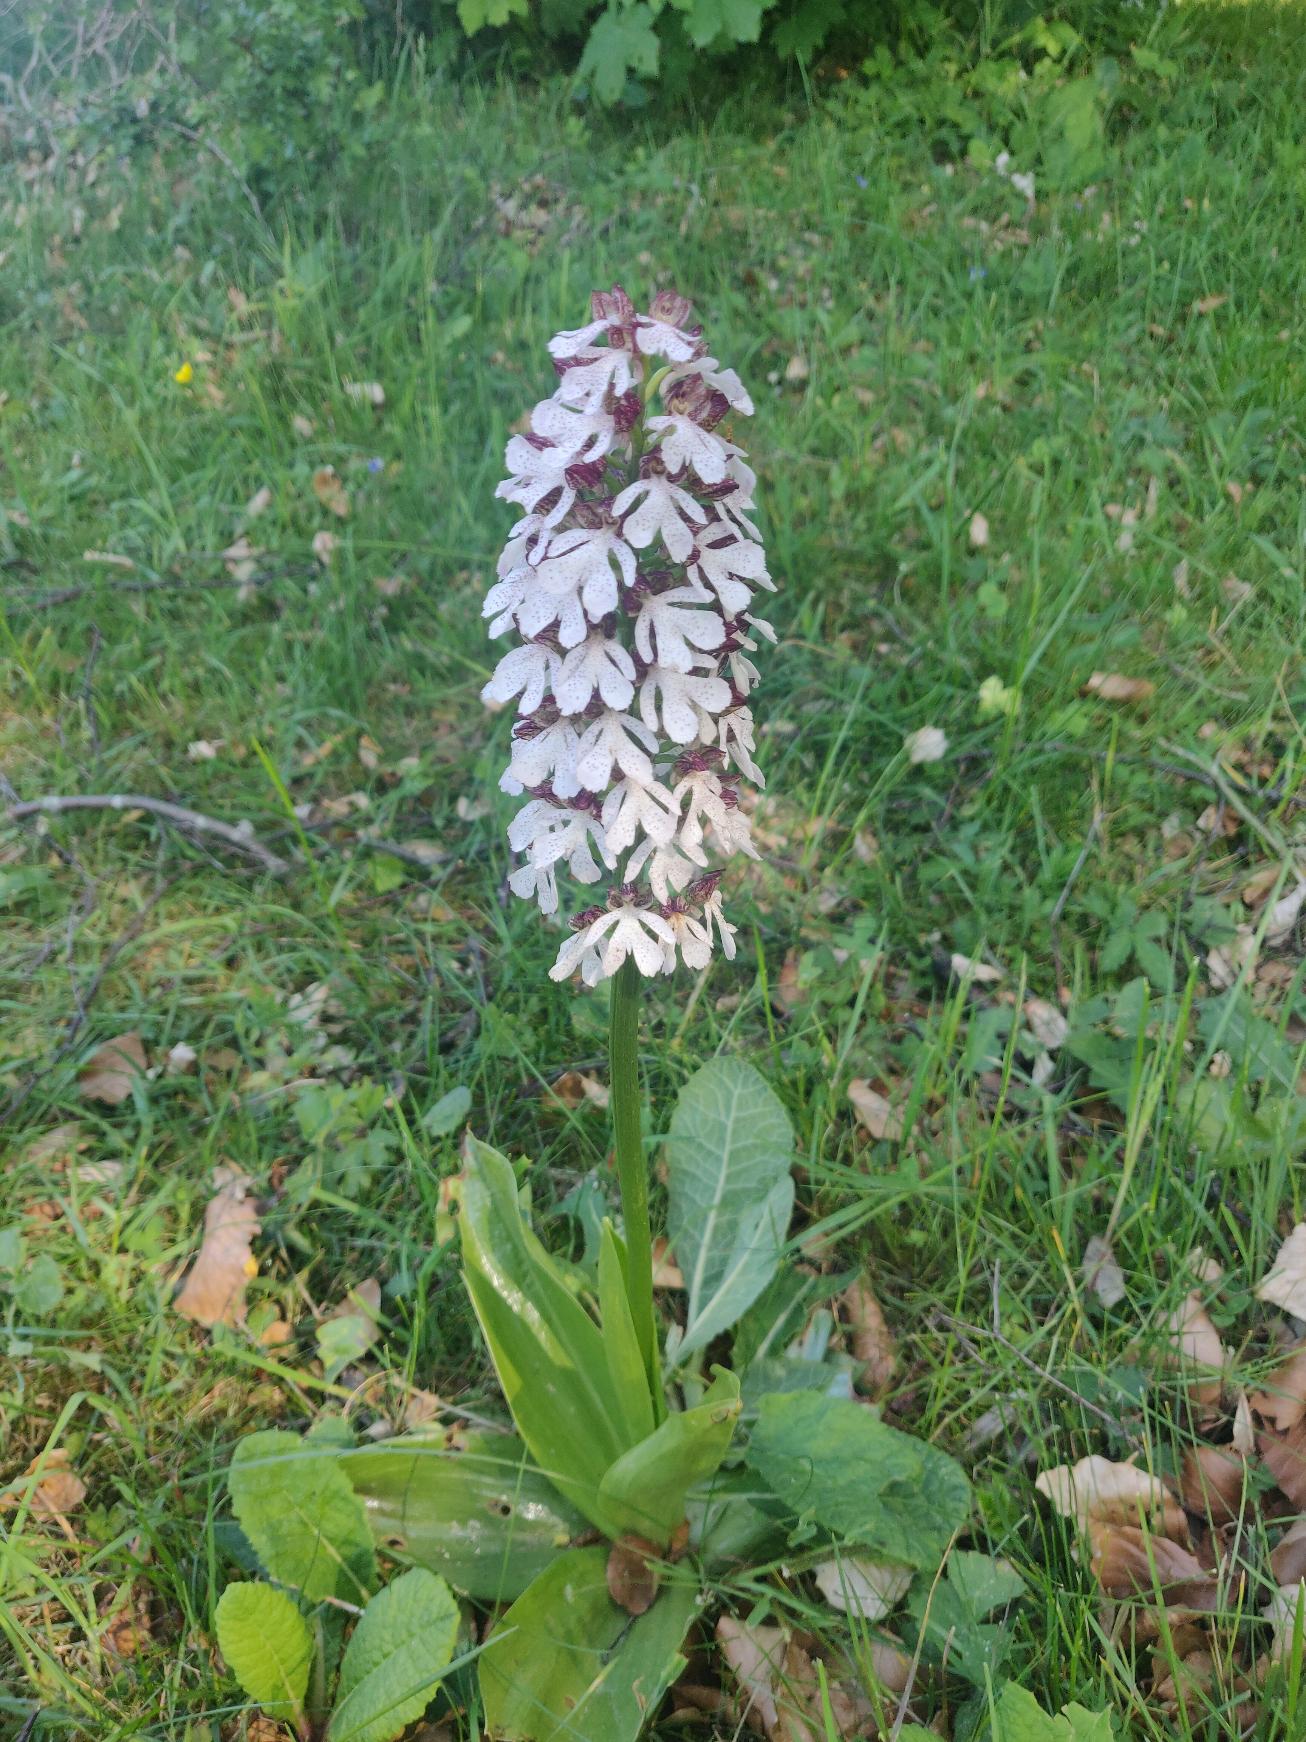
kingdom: Plantae
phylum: Tracheophyta
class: Liliopsida
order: Asparagales
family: Orchidaceae
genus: Orchis
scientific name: Orchis purpurea
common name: Stor gøgeurt
